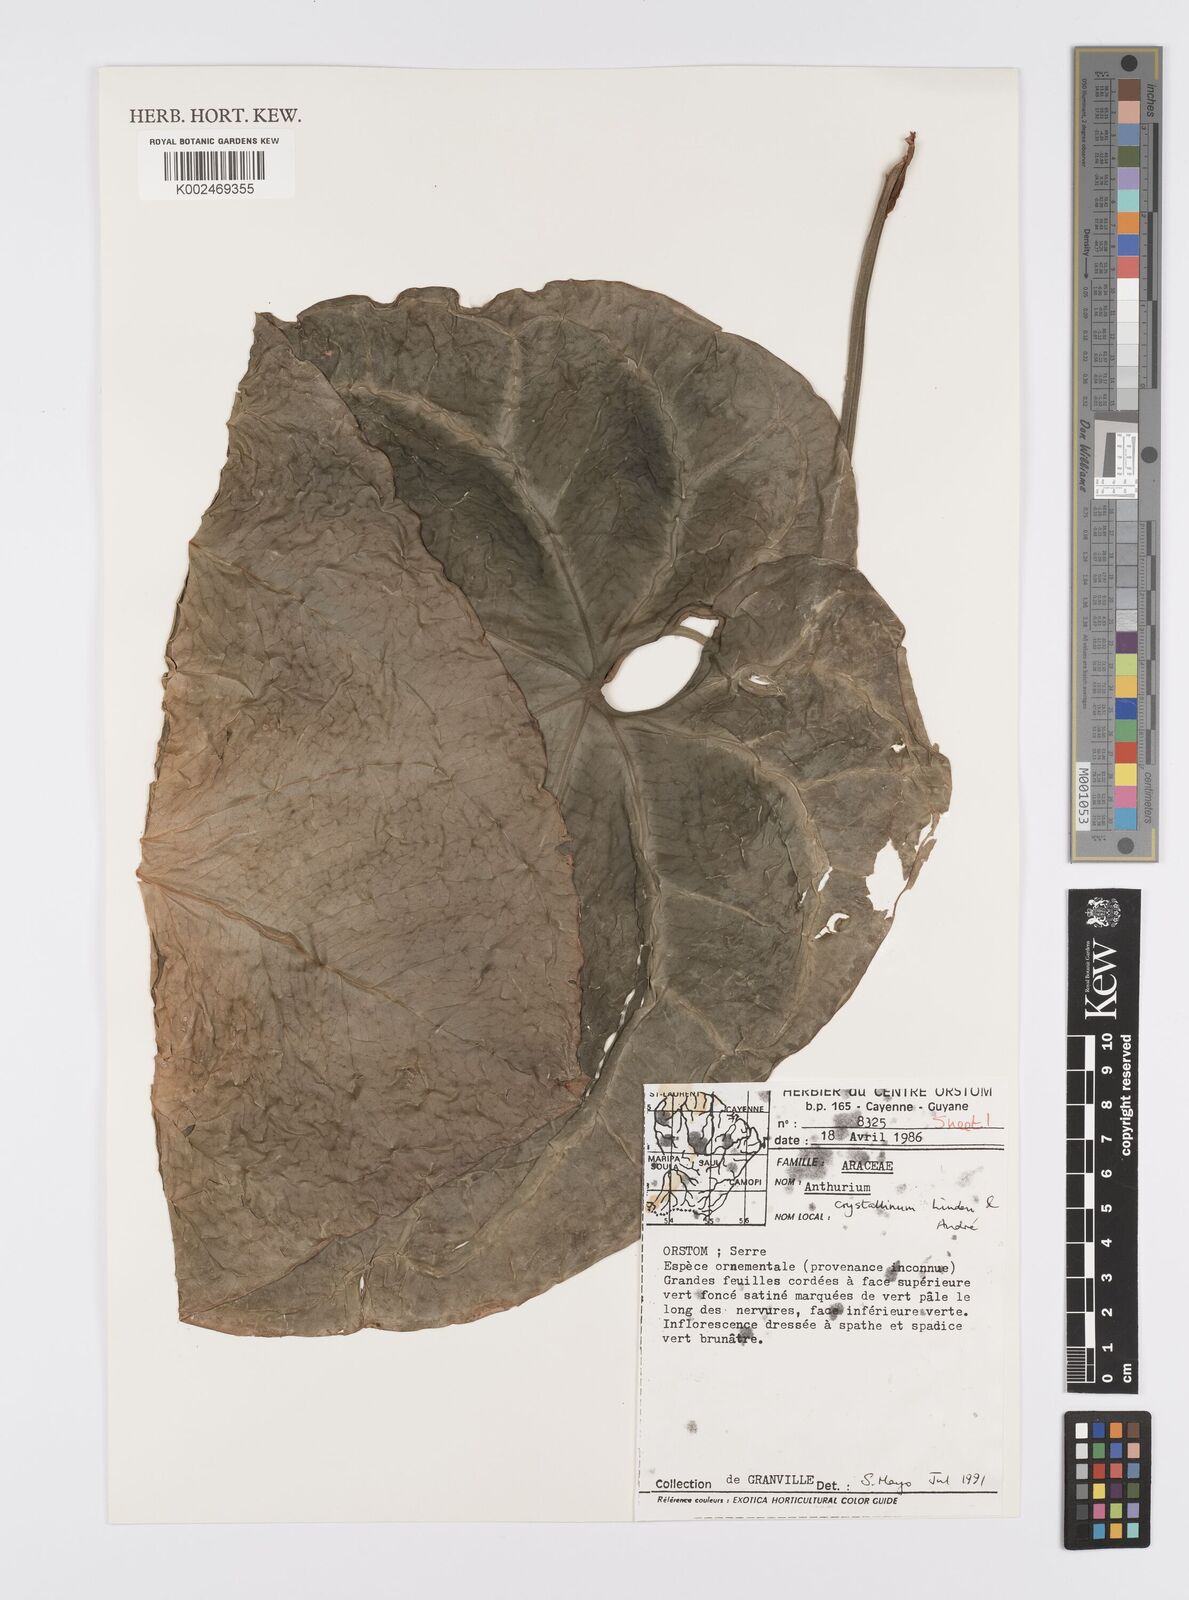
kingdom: Plantae
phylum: Tracheophyta
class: Liliopsida
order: Alismatales
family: Araceae
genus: Anthurium
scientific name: Anthurium crystallinum
